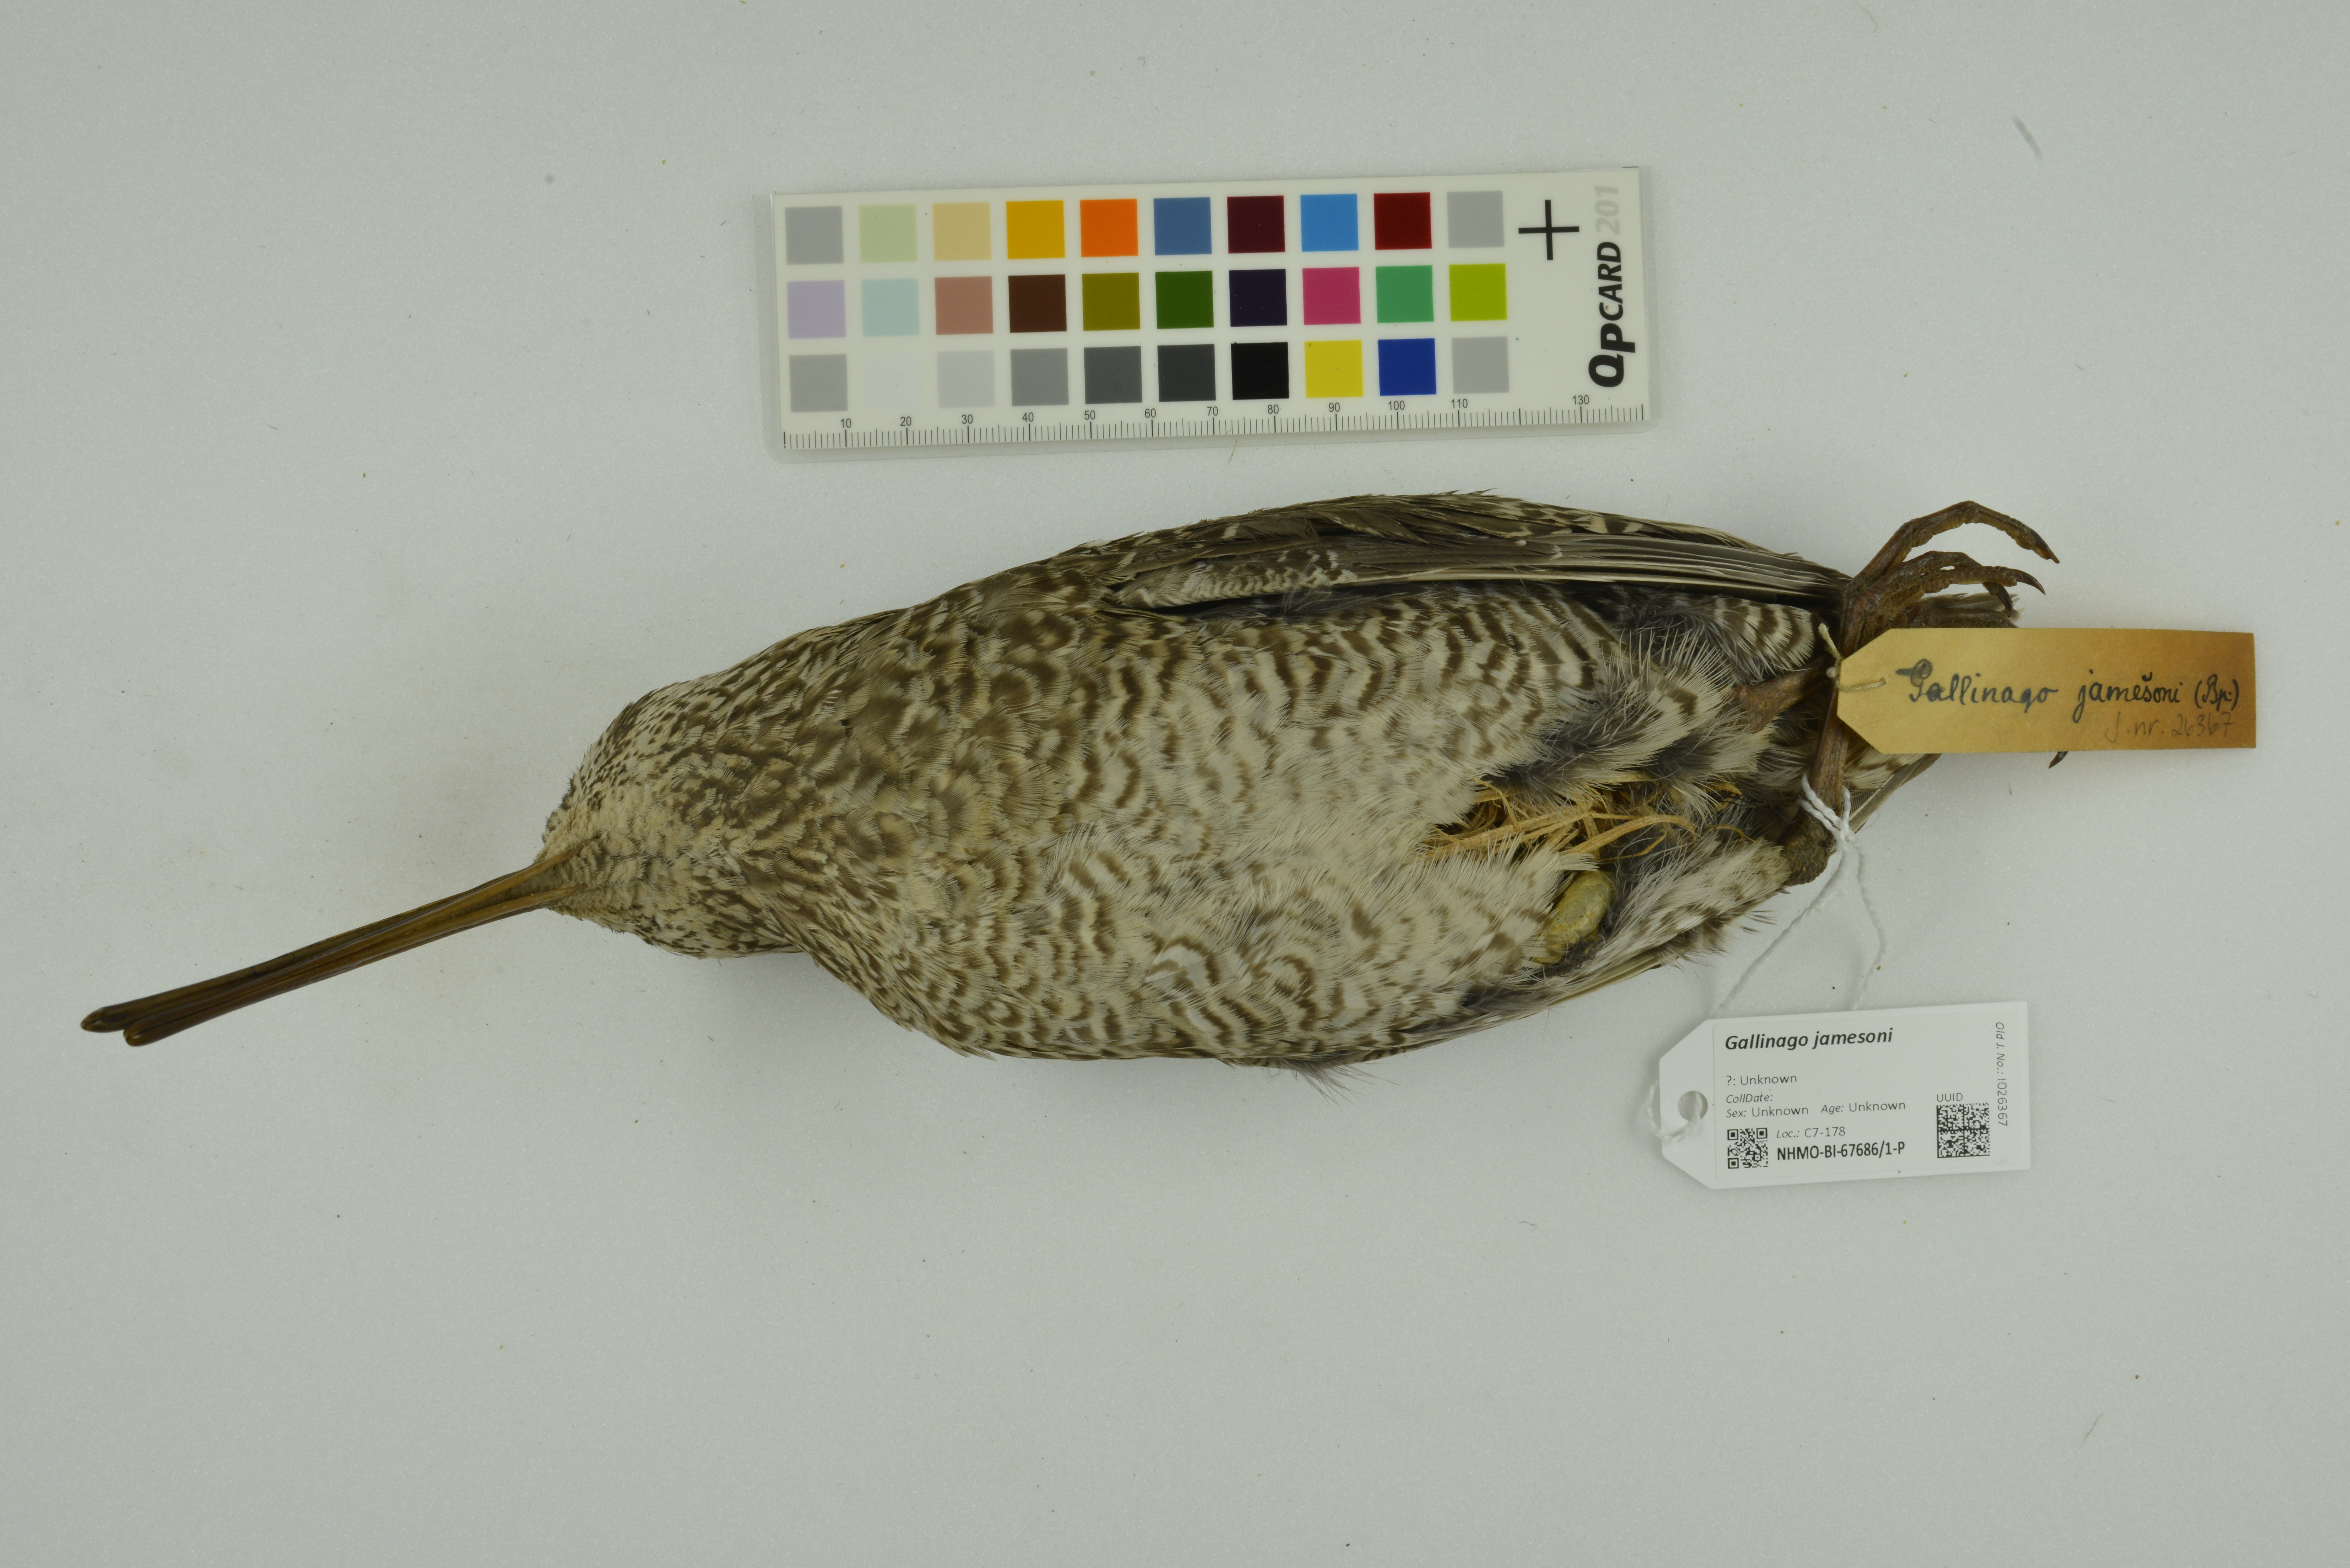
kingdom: Animalia
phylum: Chordata
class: Aves
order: Charadriiformes
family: Scolopacidae
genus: Gallinago
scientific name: Gallinago jamesoni
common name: Andean snipe
